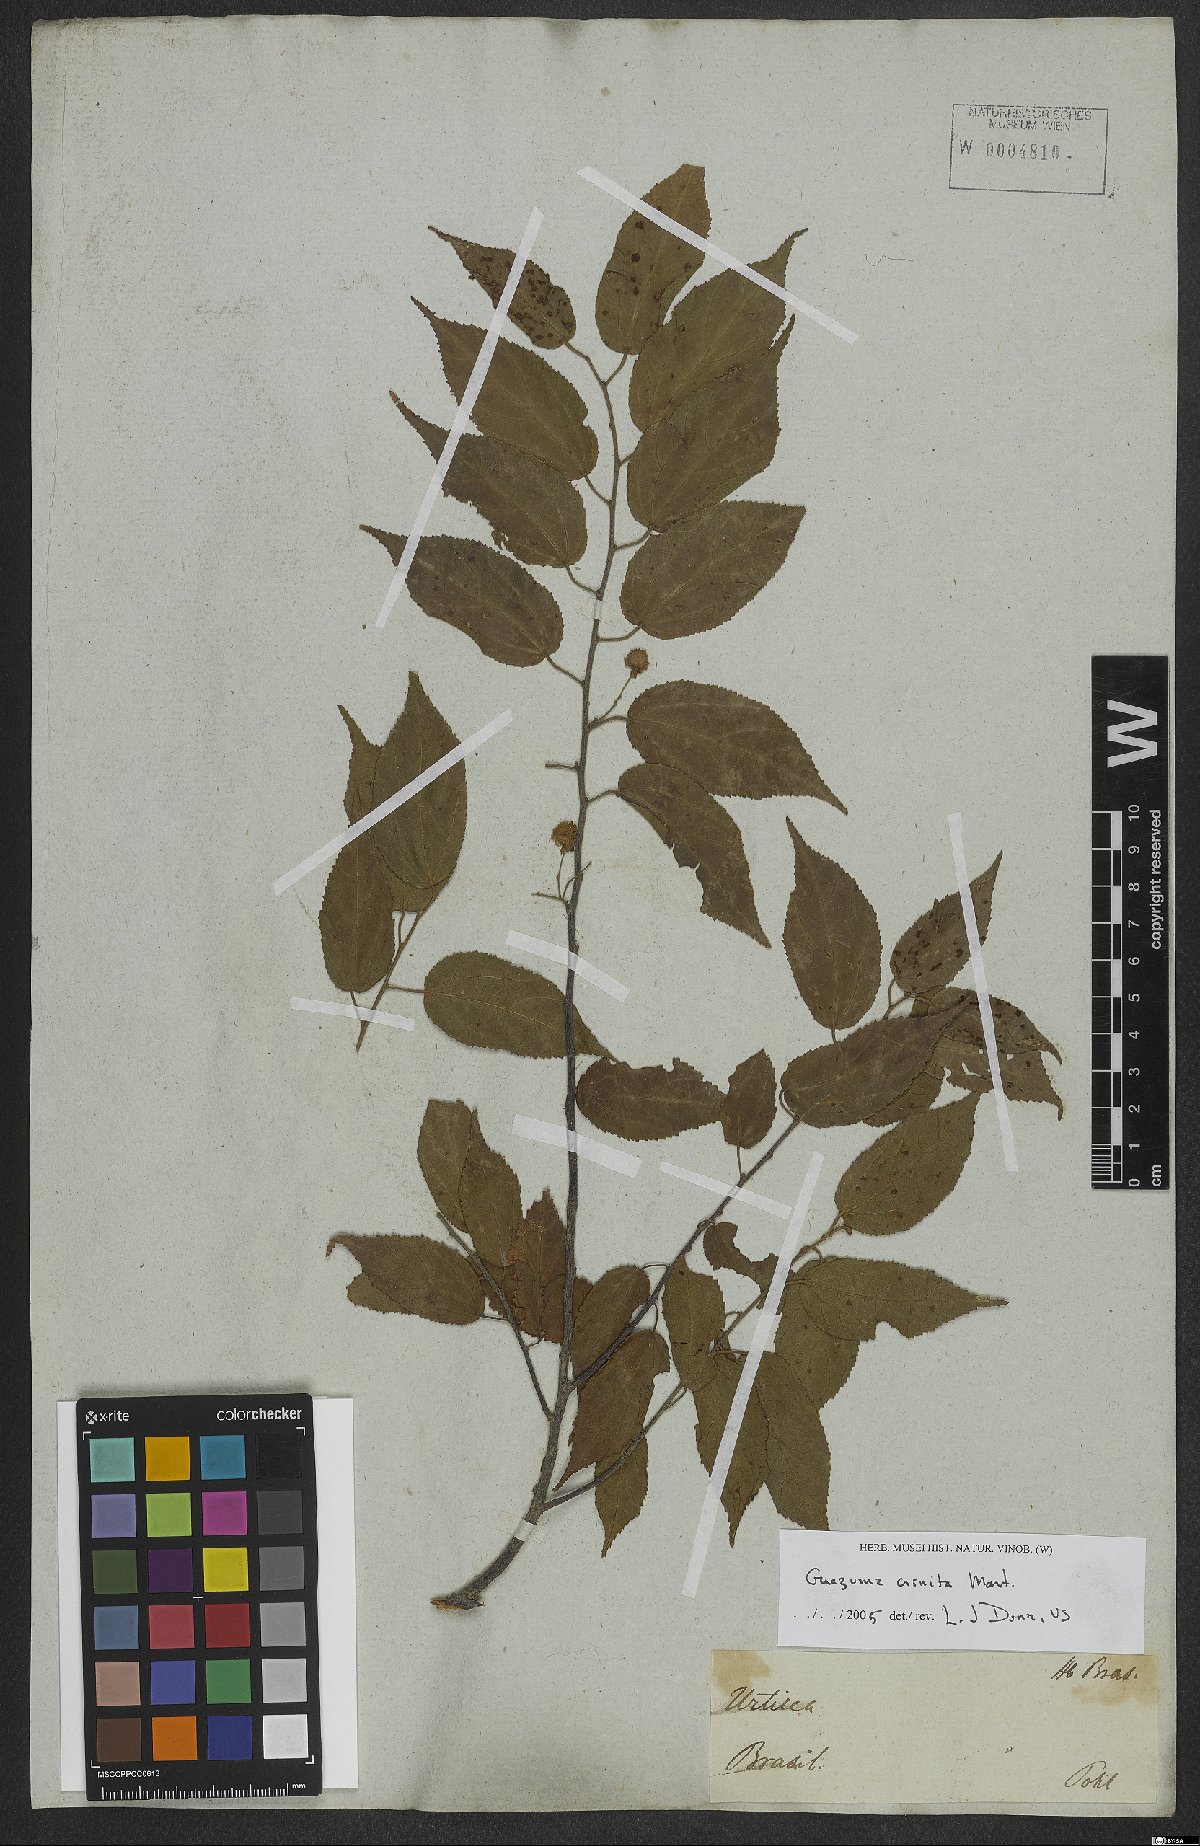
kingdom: Plantae
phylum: Tracheophyta
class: Magnoliopsida
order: Malvales
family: Malvaceae
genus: Guazuma
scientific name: Guazuma crinita
